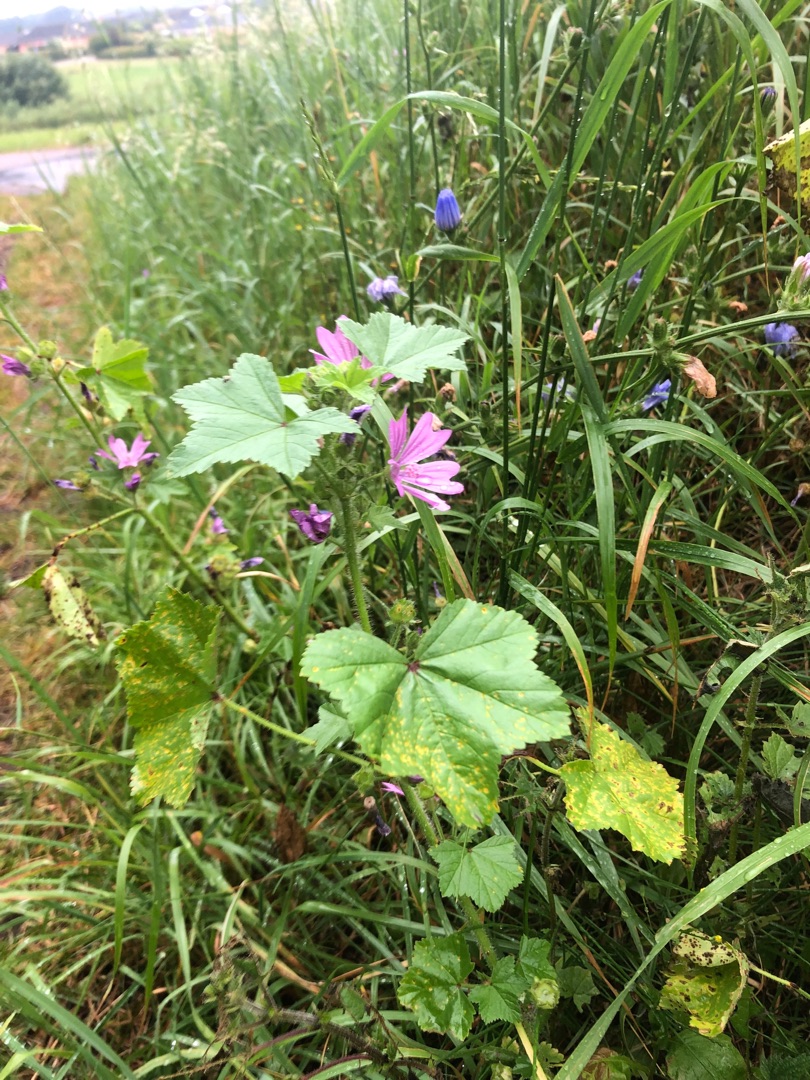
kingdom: Plantae
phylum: Tracheophyta
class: Magnoliopsida
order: Malvales
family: Malvaceae
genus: Malva
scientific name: Malva sylvestris
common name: Almindelig katost
